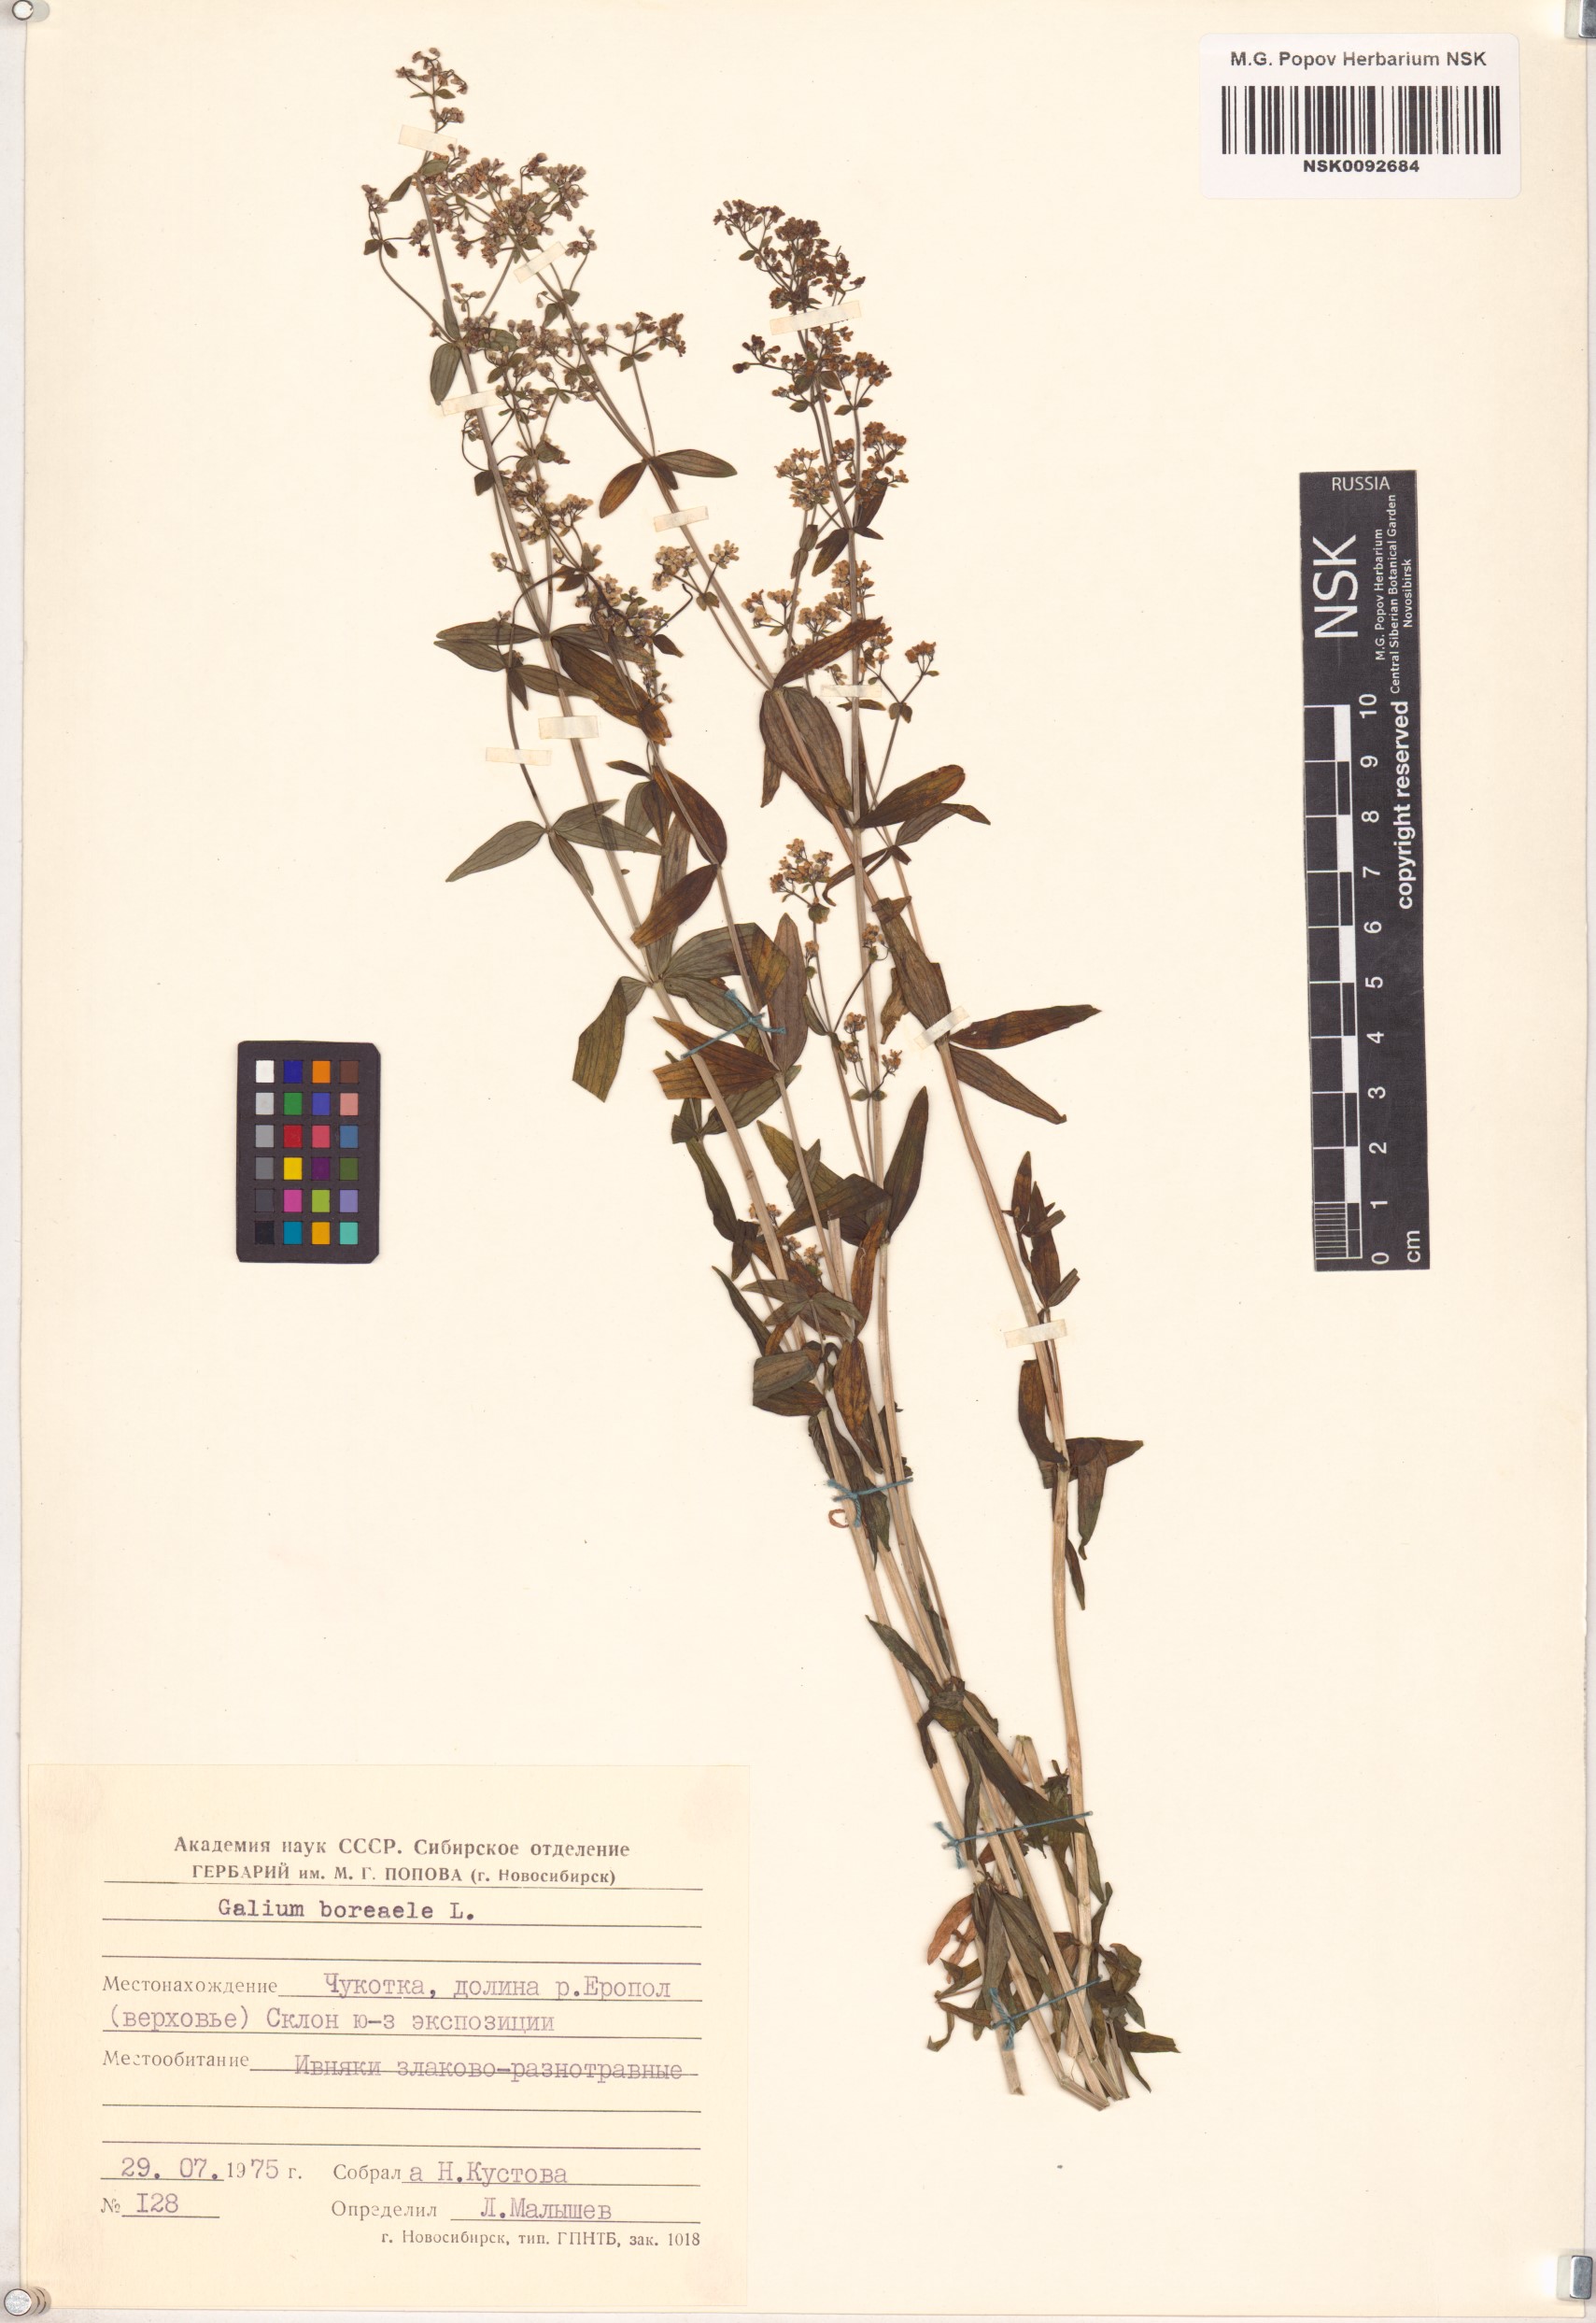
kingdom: Plantae
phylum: Tracheophyta
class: Magnoliopsida
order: Gentianales
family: Rubiaceae
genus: Galium
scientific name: Galium boreale
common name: Northern bedstraw
